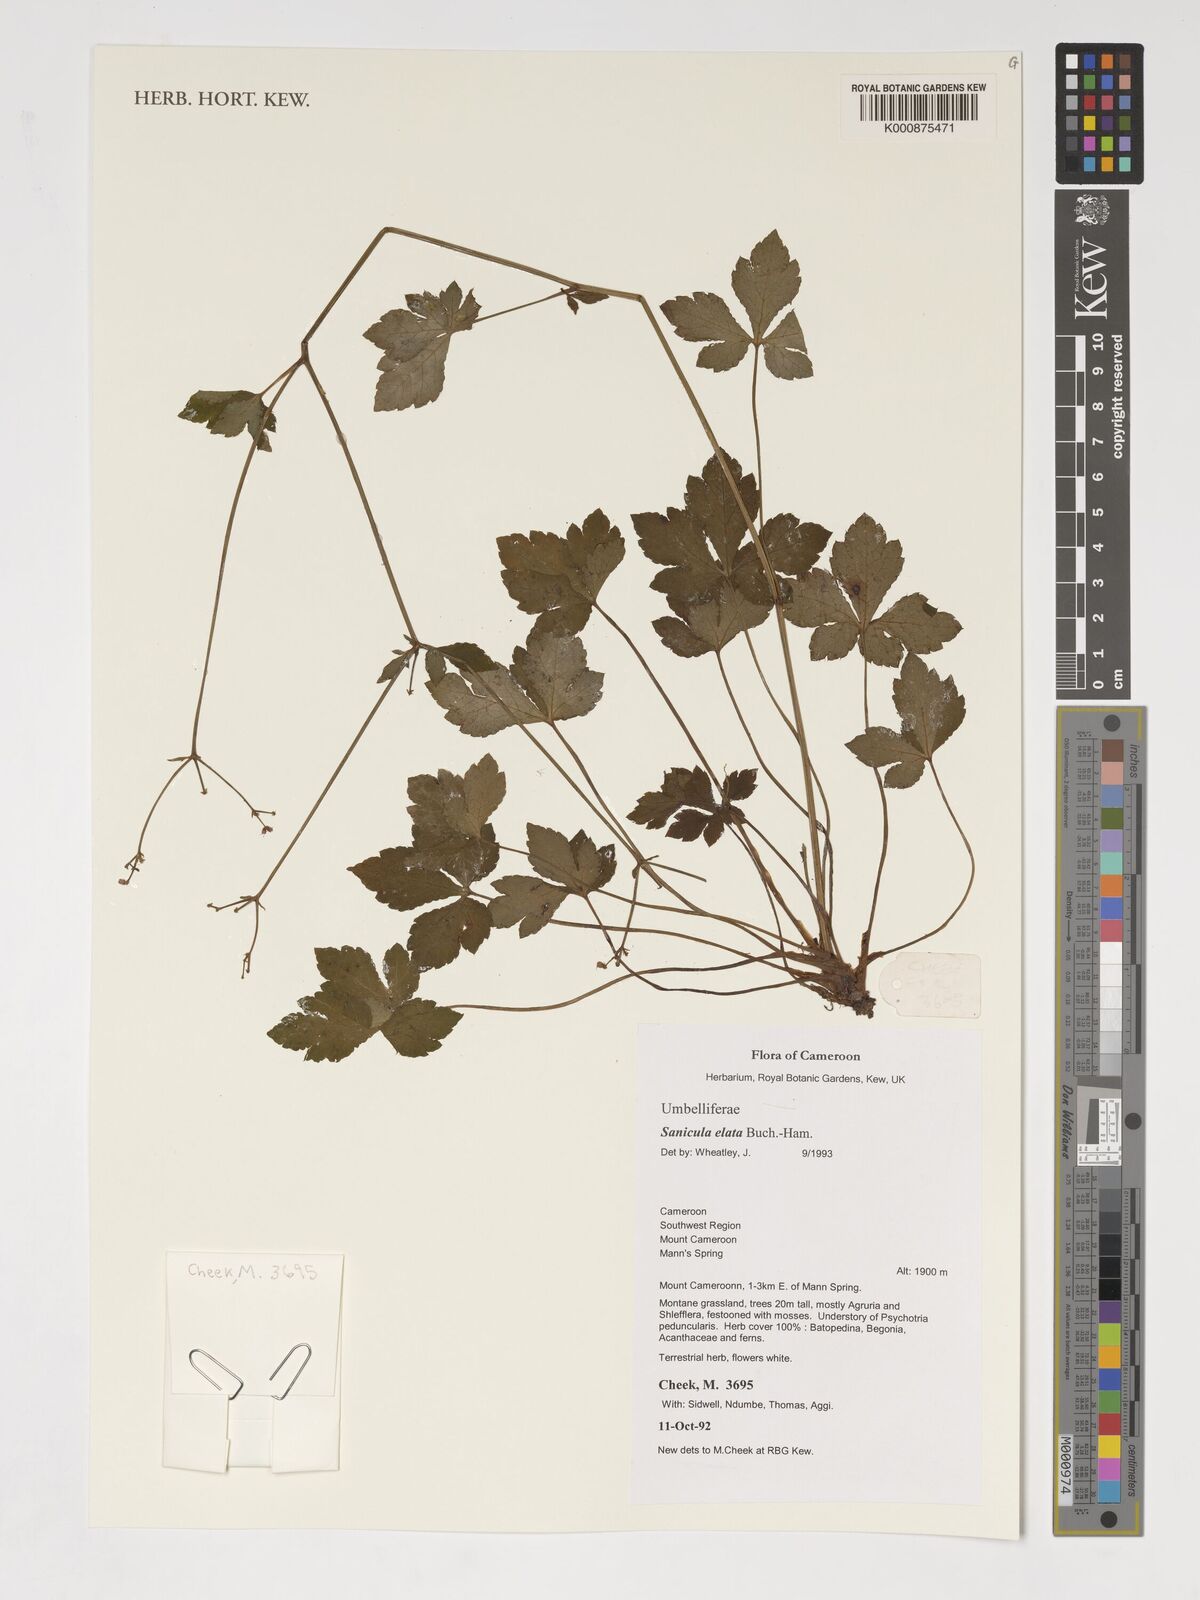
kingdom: Plantae
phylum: Tracheophyta
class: Magnoliopsida
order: Apiales
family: Apiaceae
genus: Sanicula
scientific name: Sanicula elata
